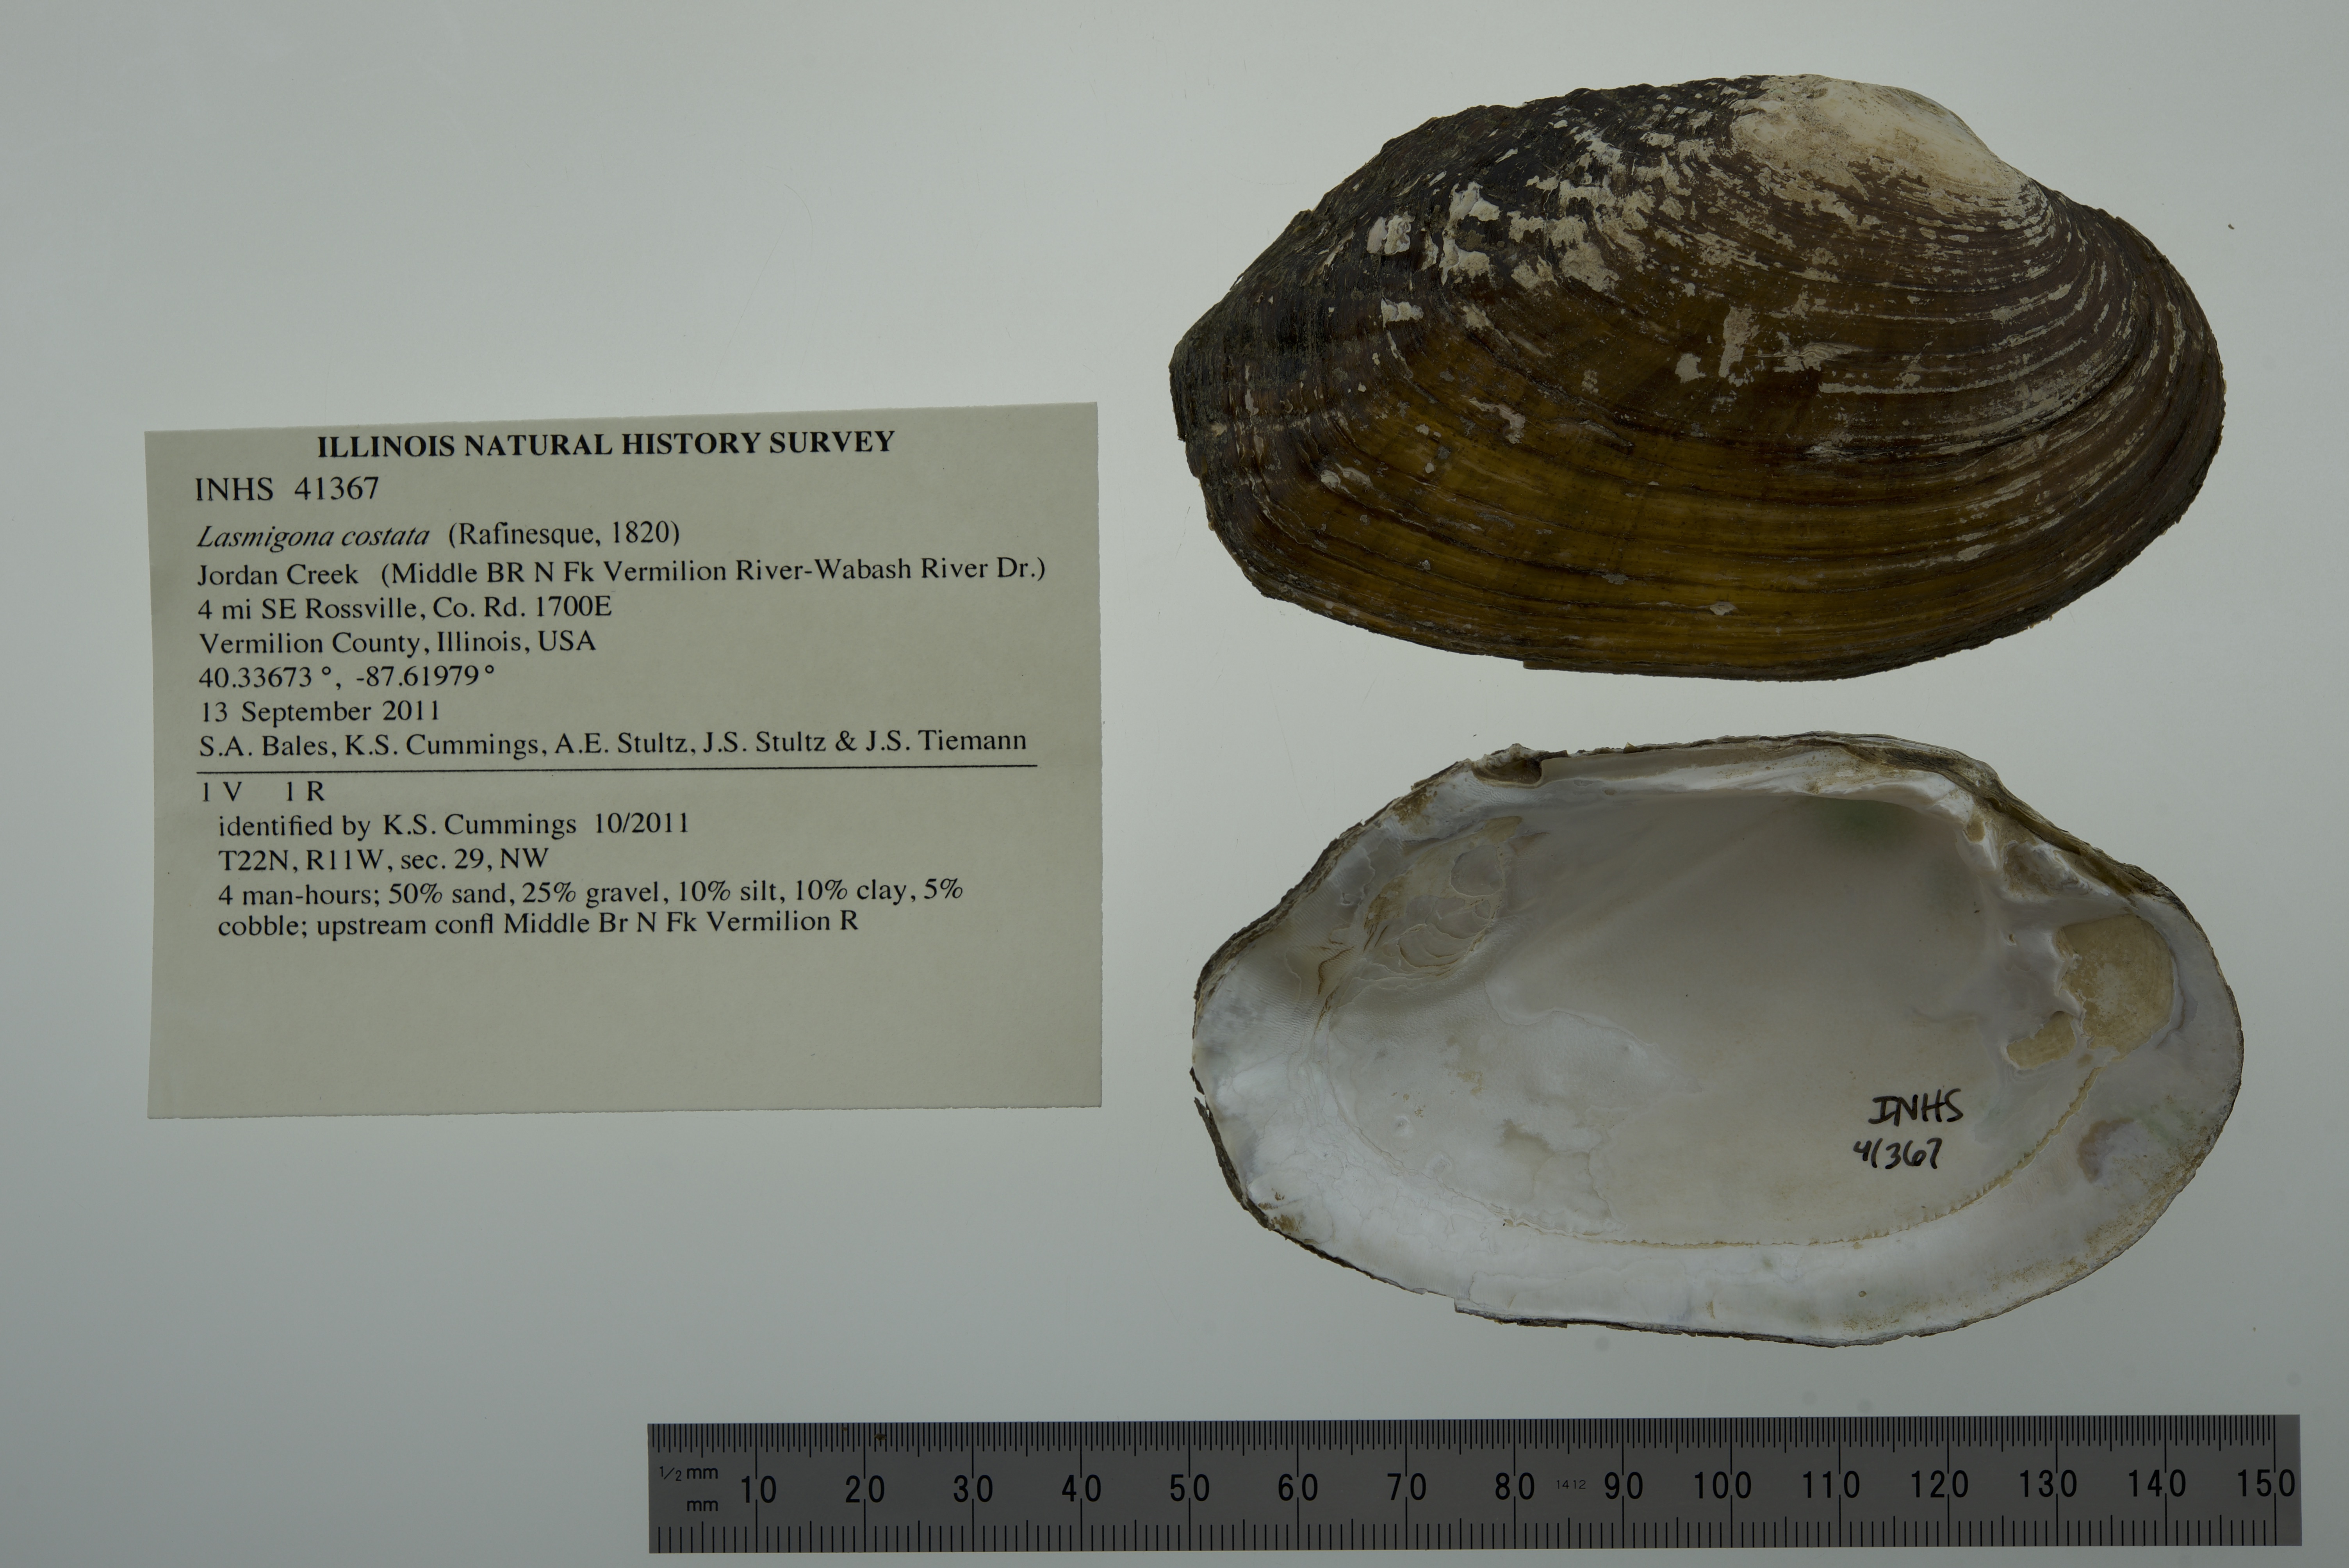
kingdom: Animalia
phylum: Mollusca
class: Bivalvia
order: Unionida
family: Unionidae
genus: Lasmigona
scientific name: Lasmigona costata
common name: Flutedshell
